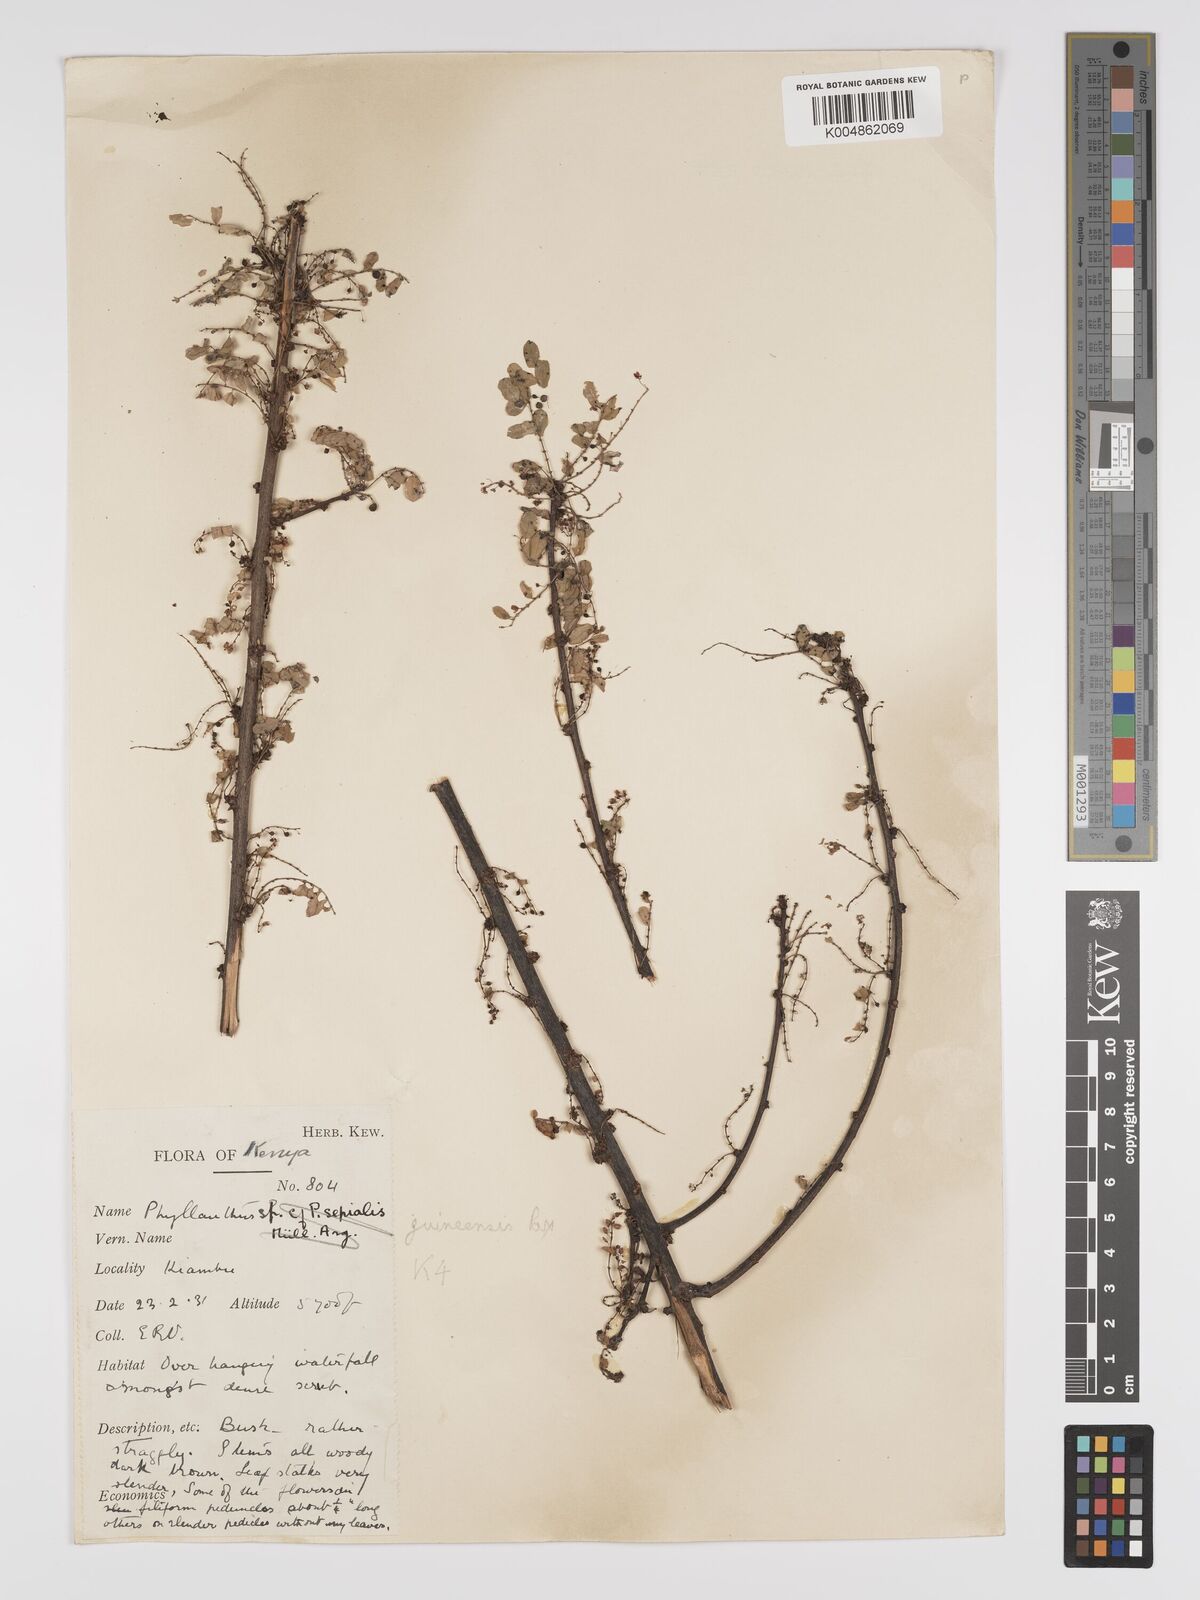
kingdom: Plantae
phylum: Tracheophyta
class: Magnoliopsida
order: Malpighiales
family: Phyllanthaceae
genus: Phyllanthus
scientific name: Phyllanthus ovalifolius
